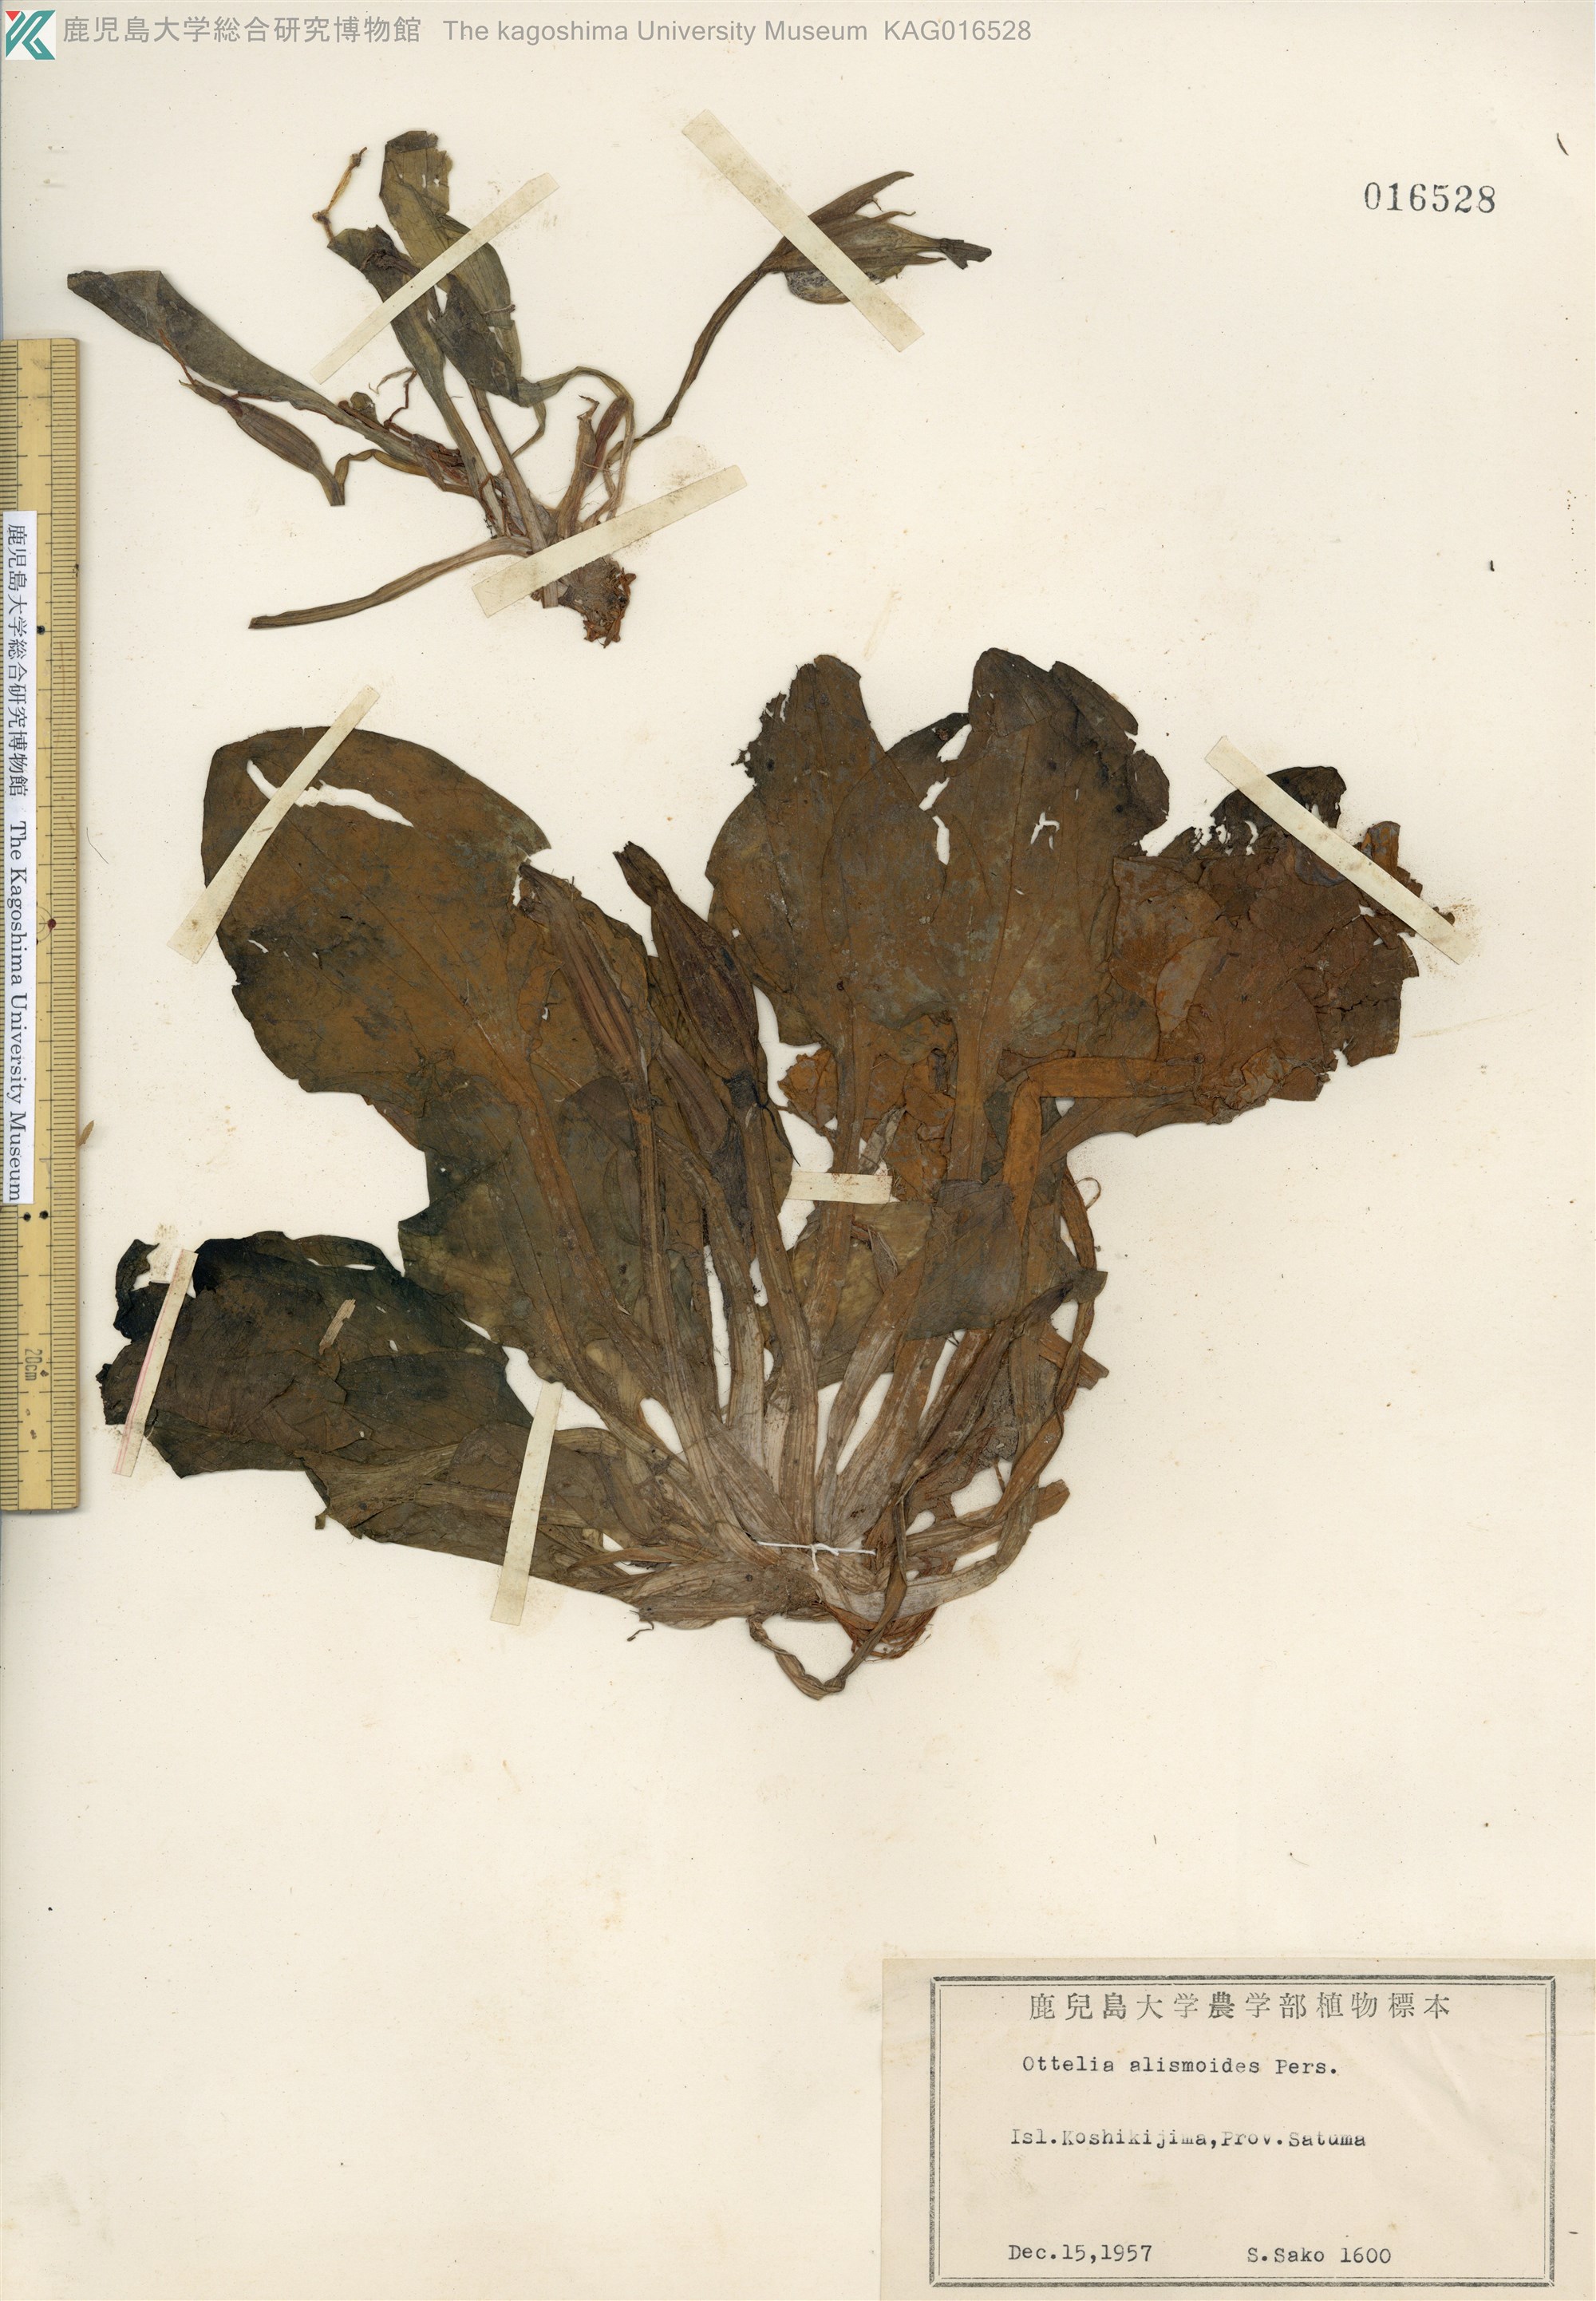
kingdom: Plantae
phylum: Tracheophyta
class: Liliopsida
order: Alismatales
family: Hydrocharitaceae
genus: Ottelia
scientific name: Ottelia alismoides
